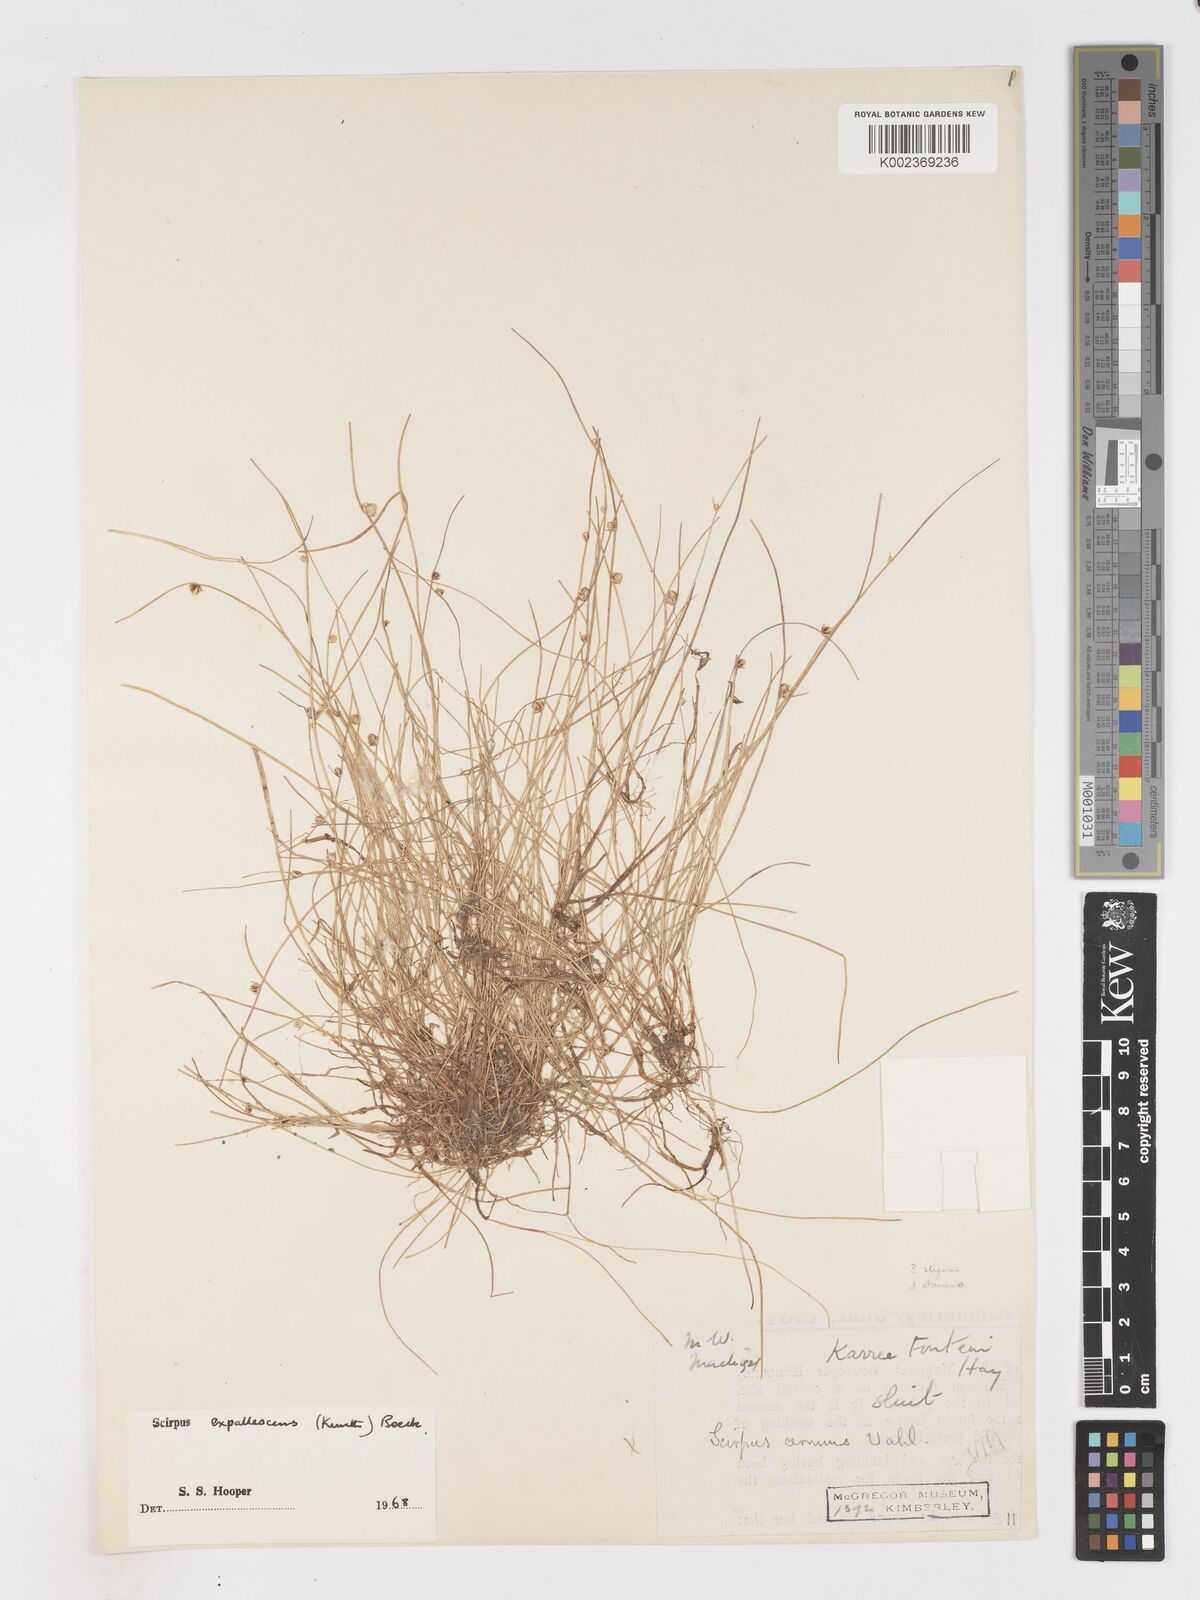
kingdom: Plantae
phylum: Tracheophyta
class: Liliopsida
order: Poales
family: Cyperaceae
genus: Isolepis
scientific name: Isolepis expallescens
